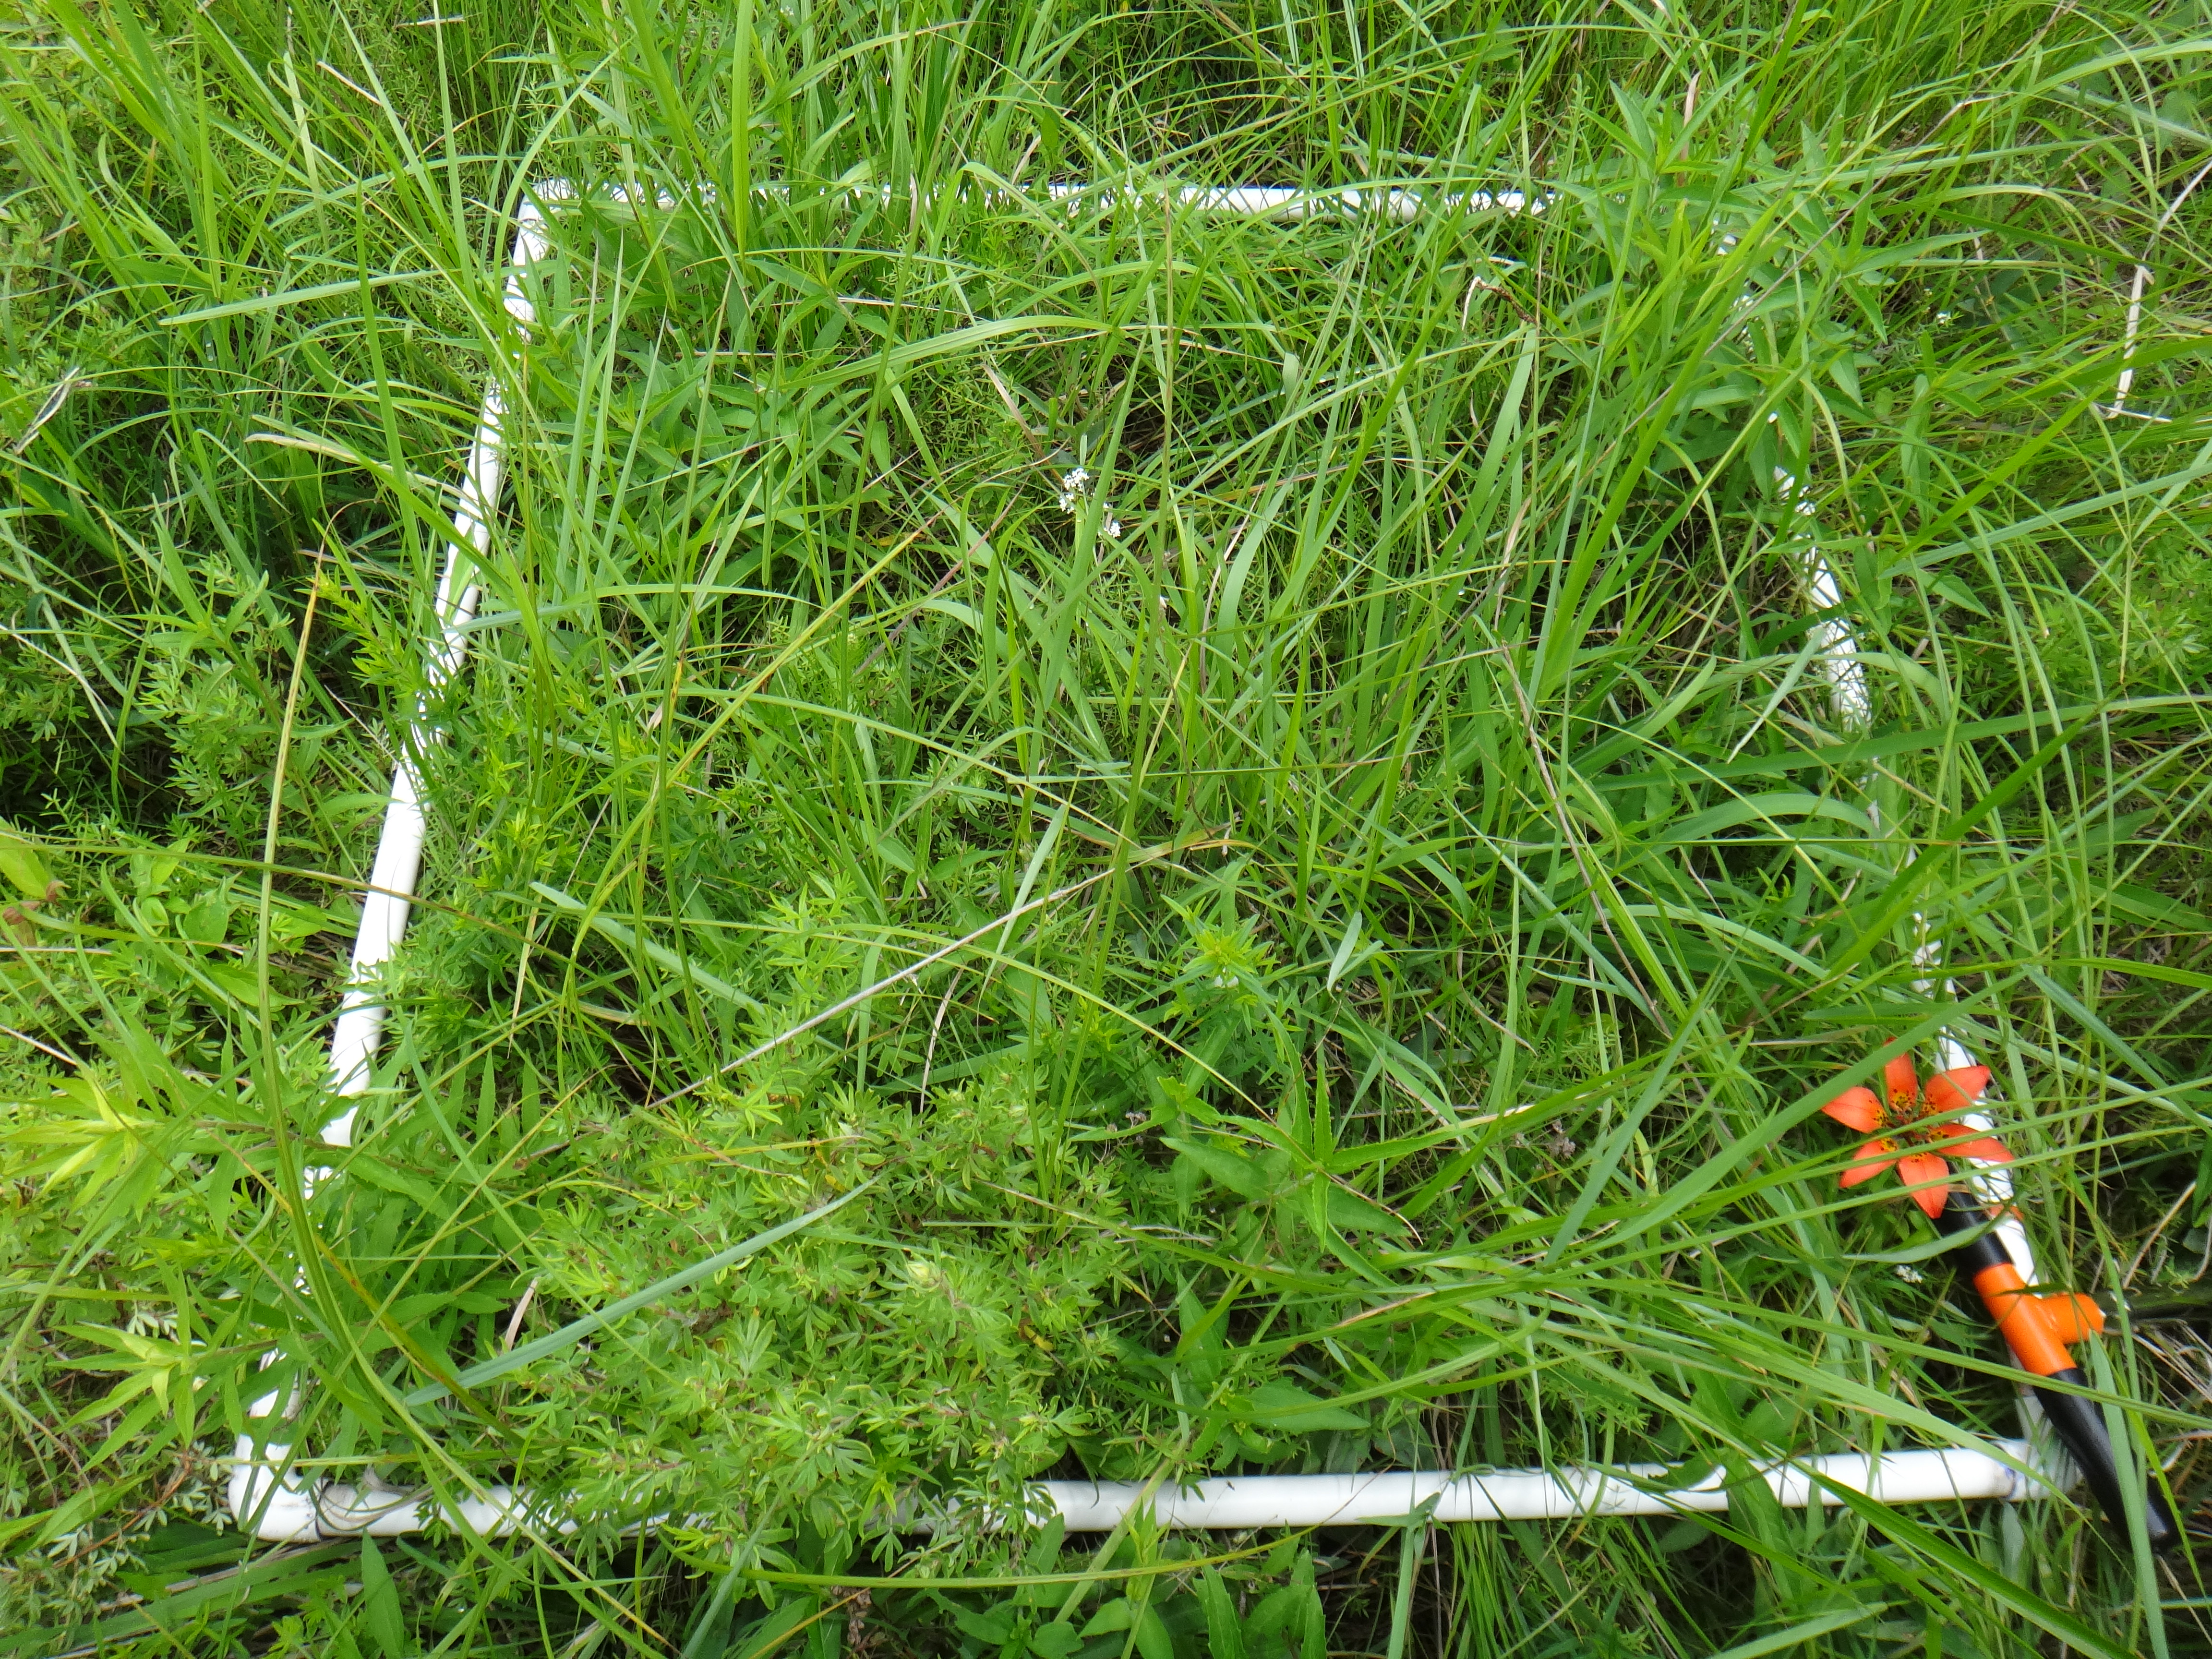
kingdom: Plantae
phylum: Tracheophyta
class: Magnoliopsida
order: Asterales
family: Asteraceae
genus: Symphyotrichum
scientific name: Symphyotrichum lanceolatum
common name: Panicled aster
